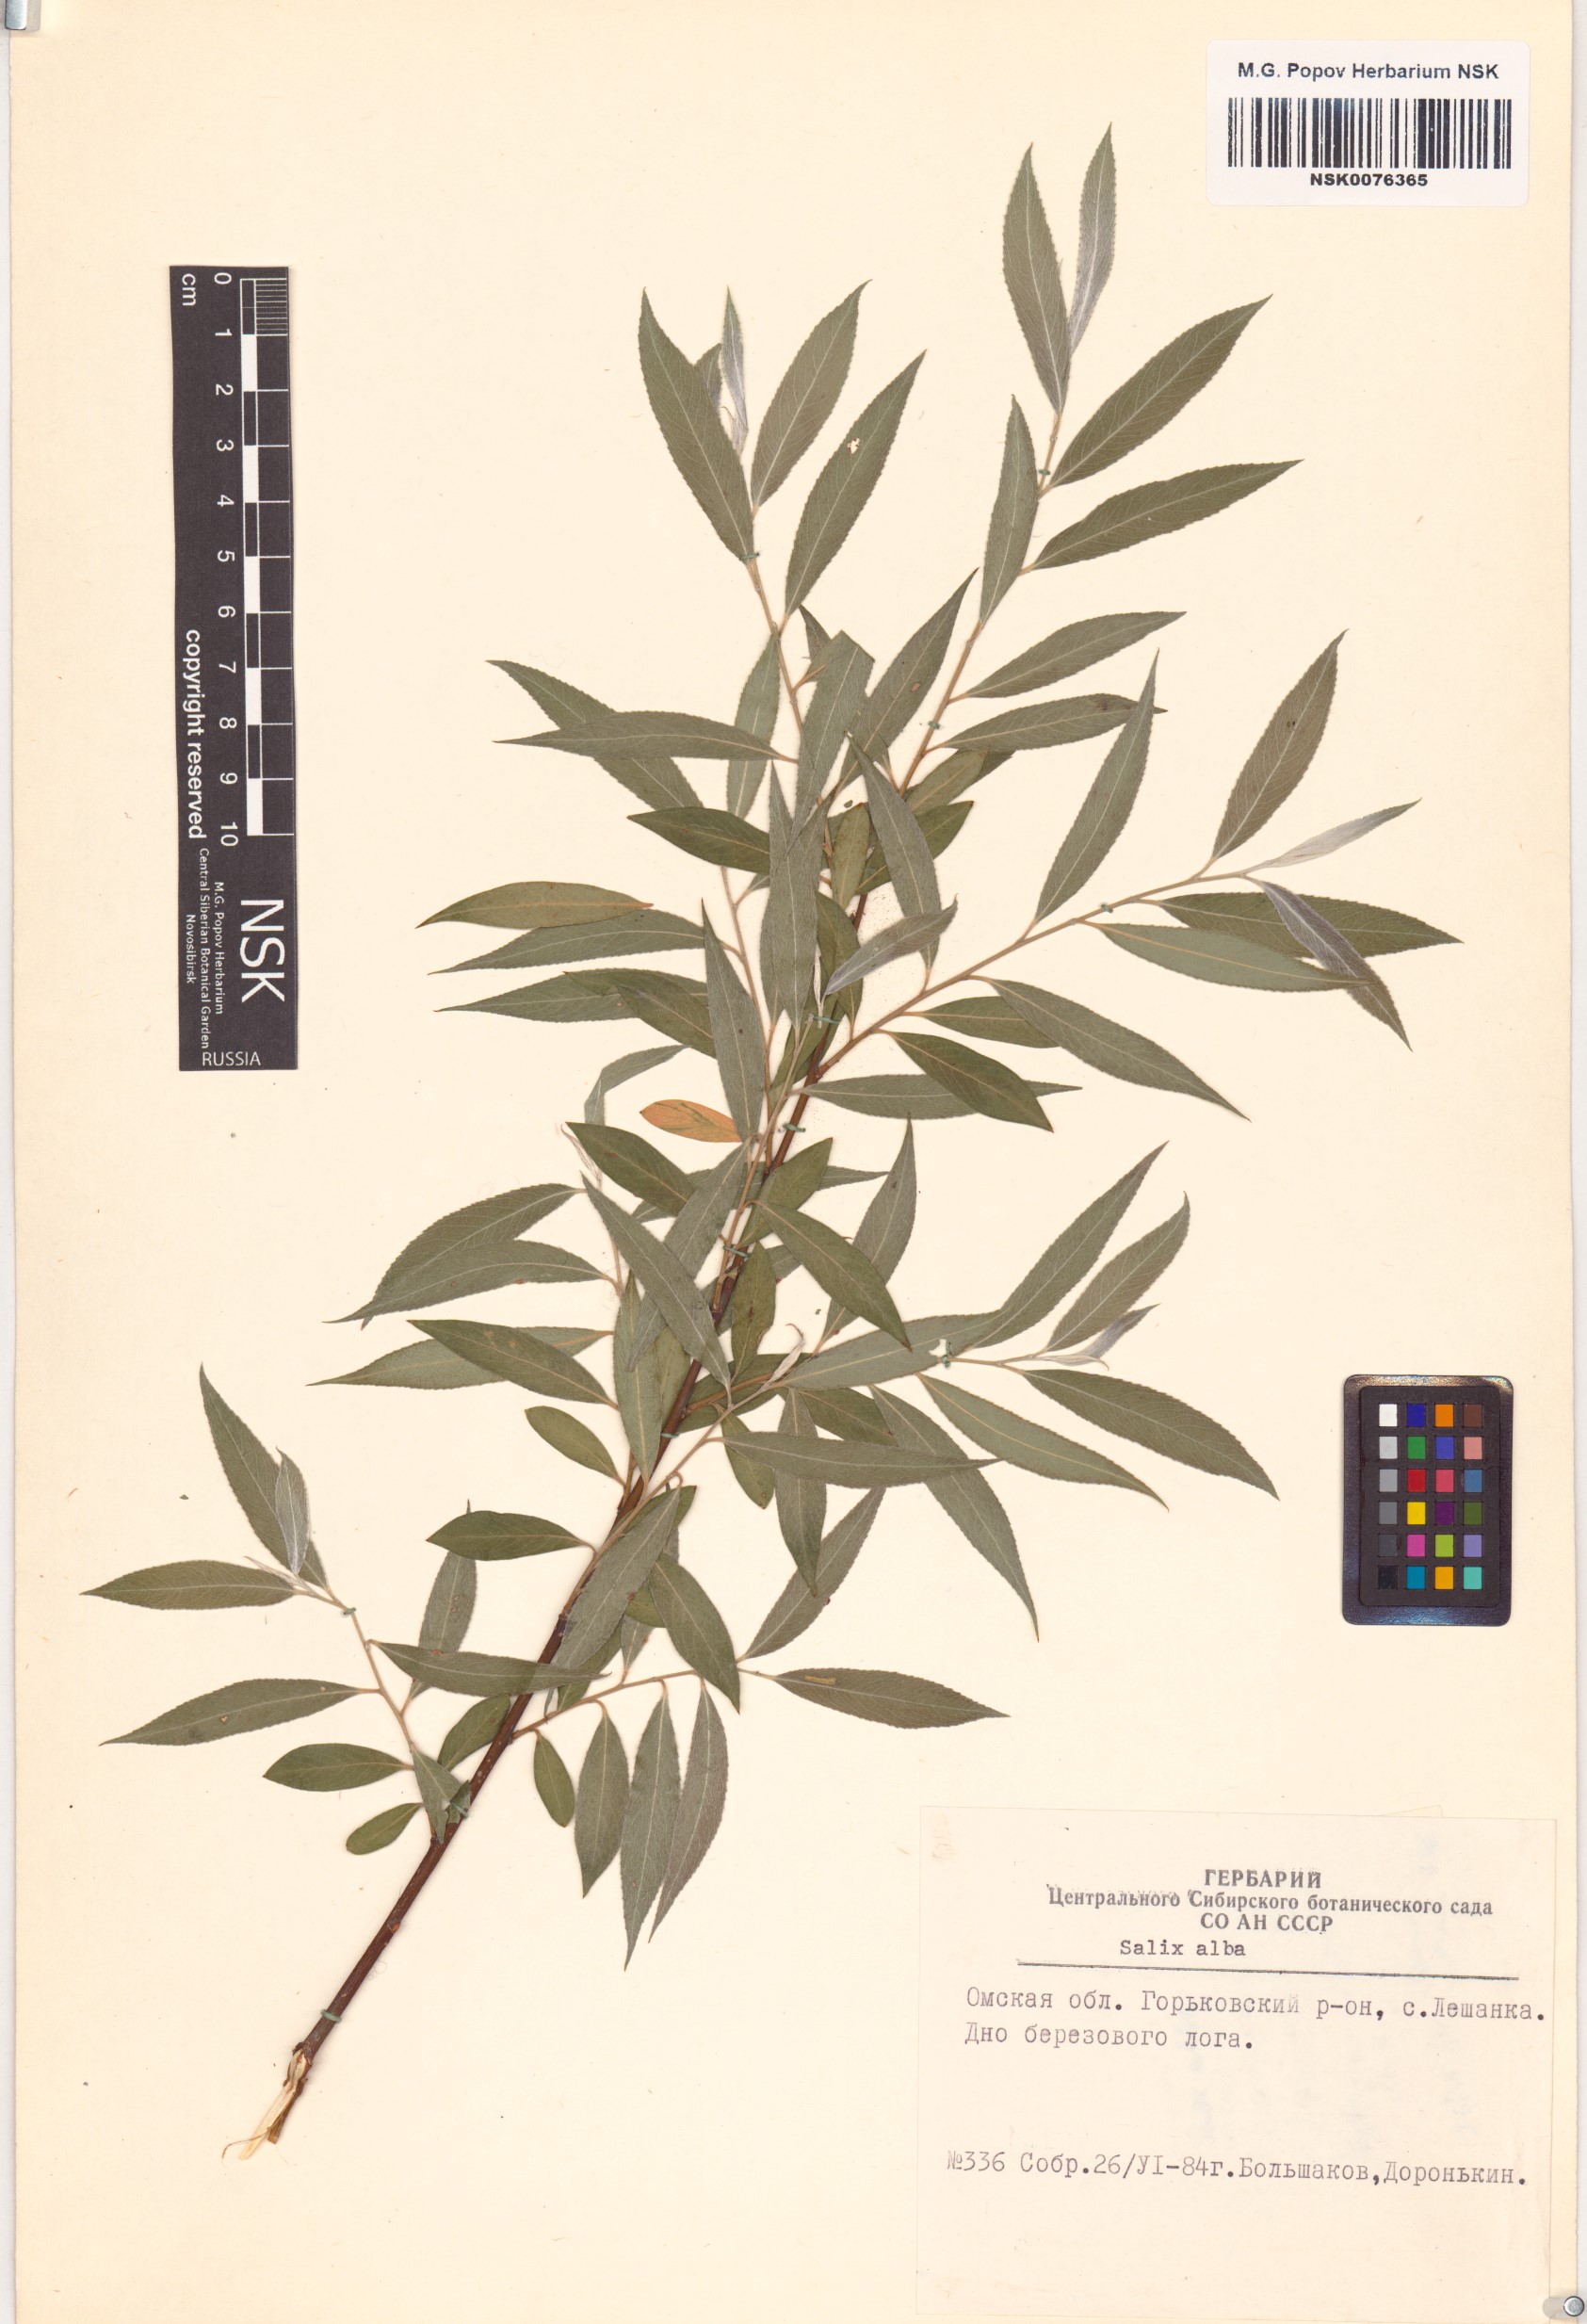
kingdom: Plantae
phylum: Tracheophyta
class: Magnoliopsida
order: Malpighiales
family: Salicaceae
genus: Salix
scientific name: Salix alba
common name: White willow
